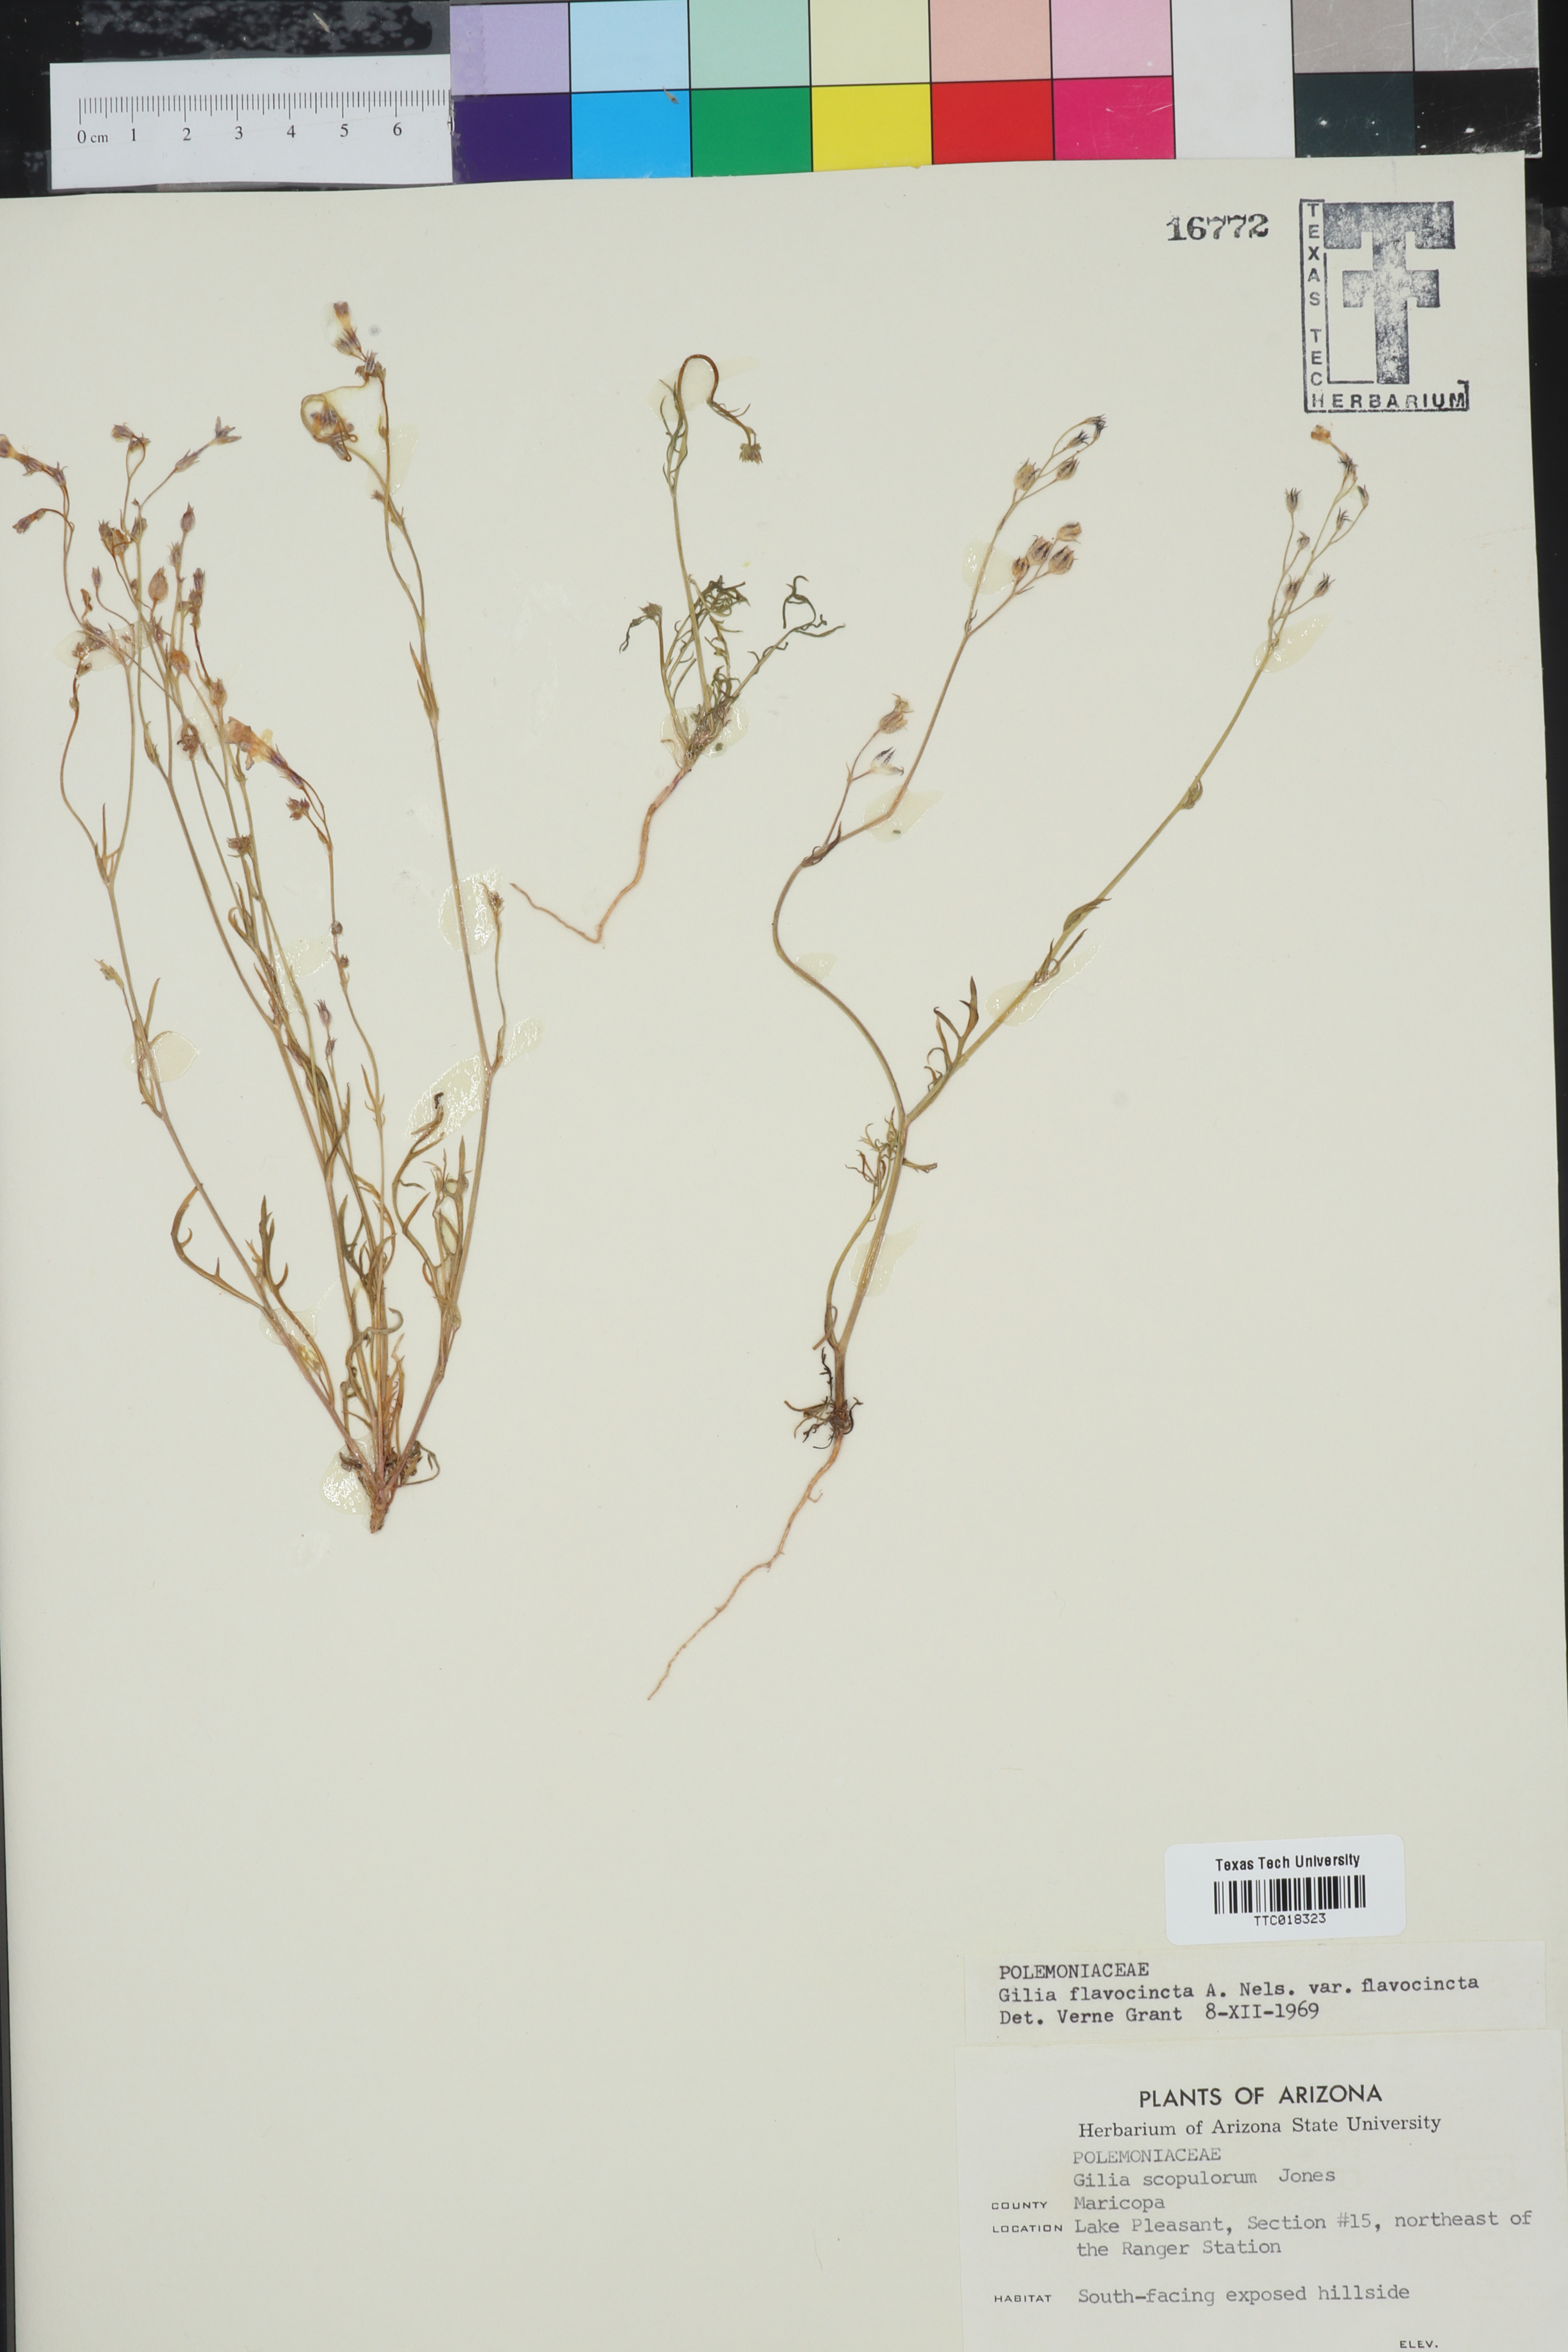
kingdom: Plantae
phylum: Tracheophyta
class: Magnoliopsida
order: Ericales
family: Polemoniaceae
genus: Gilia
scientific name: Gilia scopulorum
